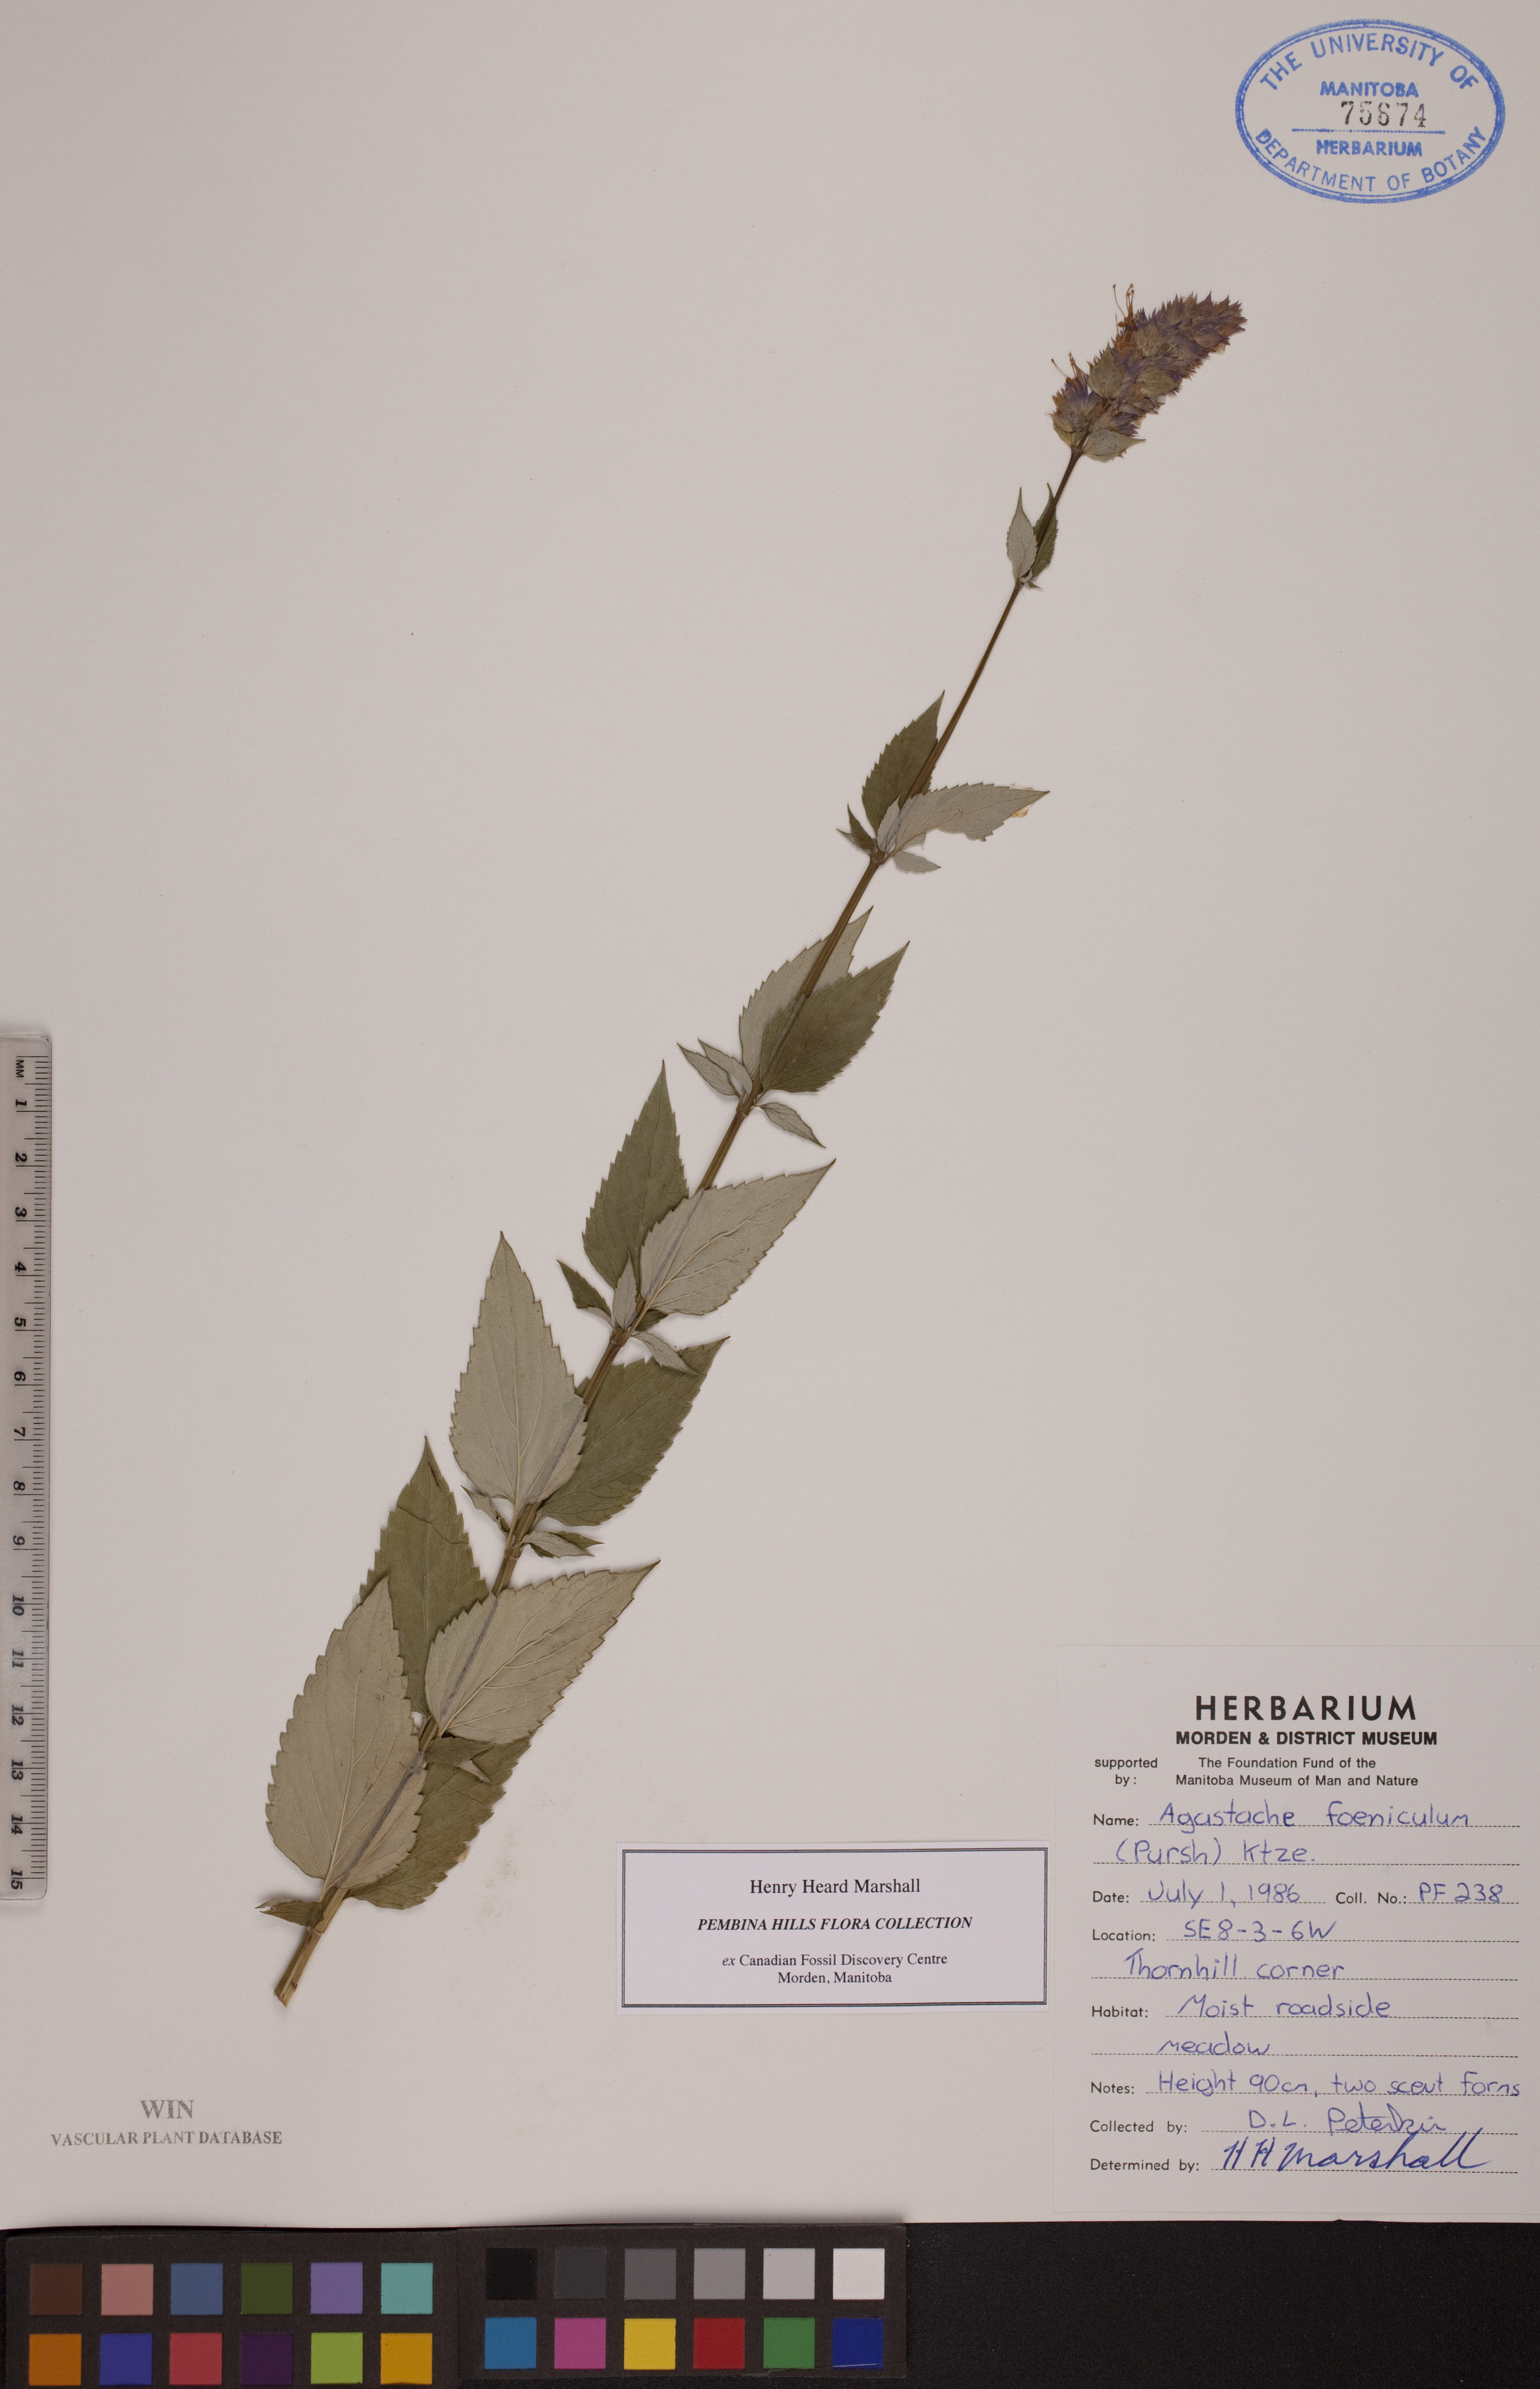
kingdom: Plantae
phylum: Tracheophyta
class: Magnoliopsida
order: Lamiales
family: Lamiaceae
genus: Agastache
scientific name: Agastache foeniculum
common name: Anise hyssop
